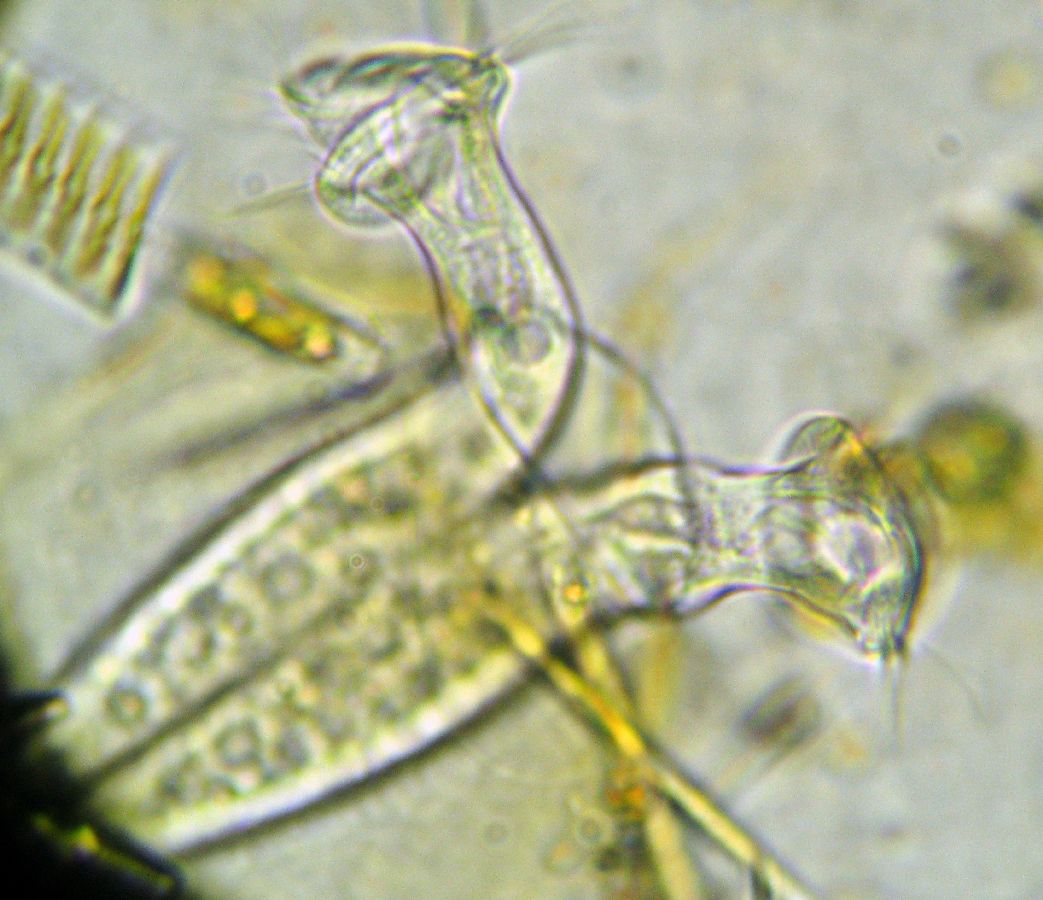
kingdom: Chromista
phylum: Ciliophora
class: Oligohymenophorea
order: Peritrichida
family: Vaginicolidae
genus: Platycola
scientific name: Platycola decumbens
